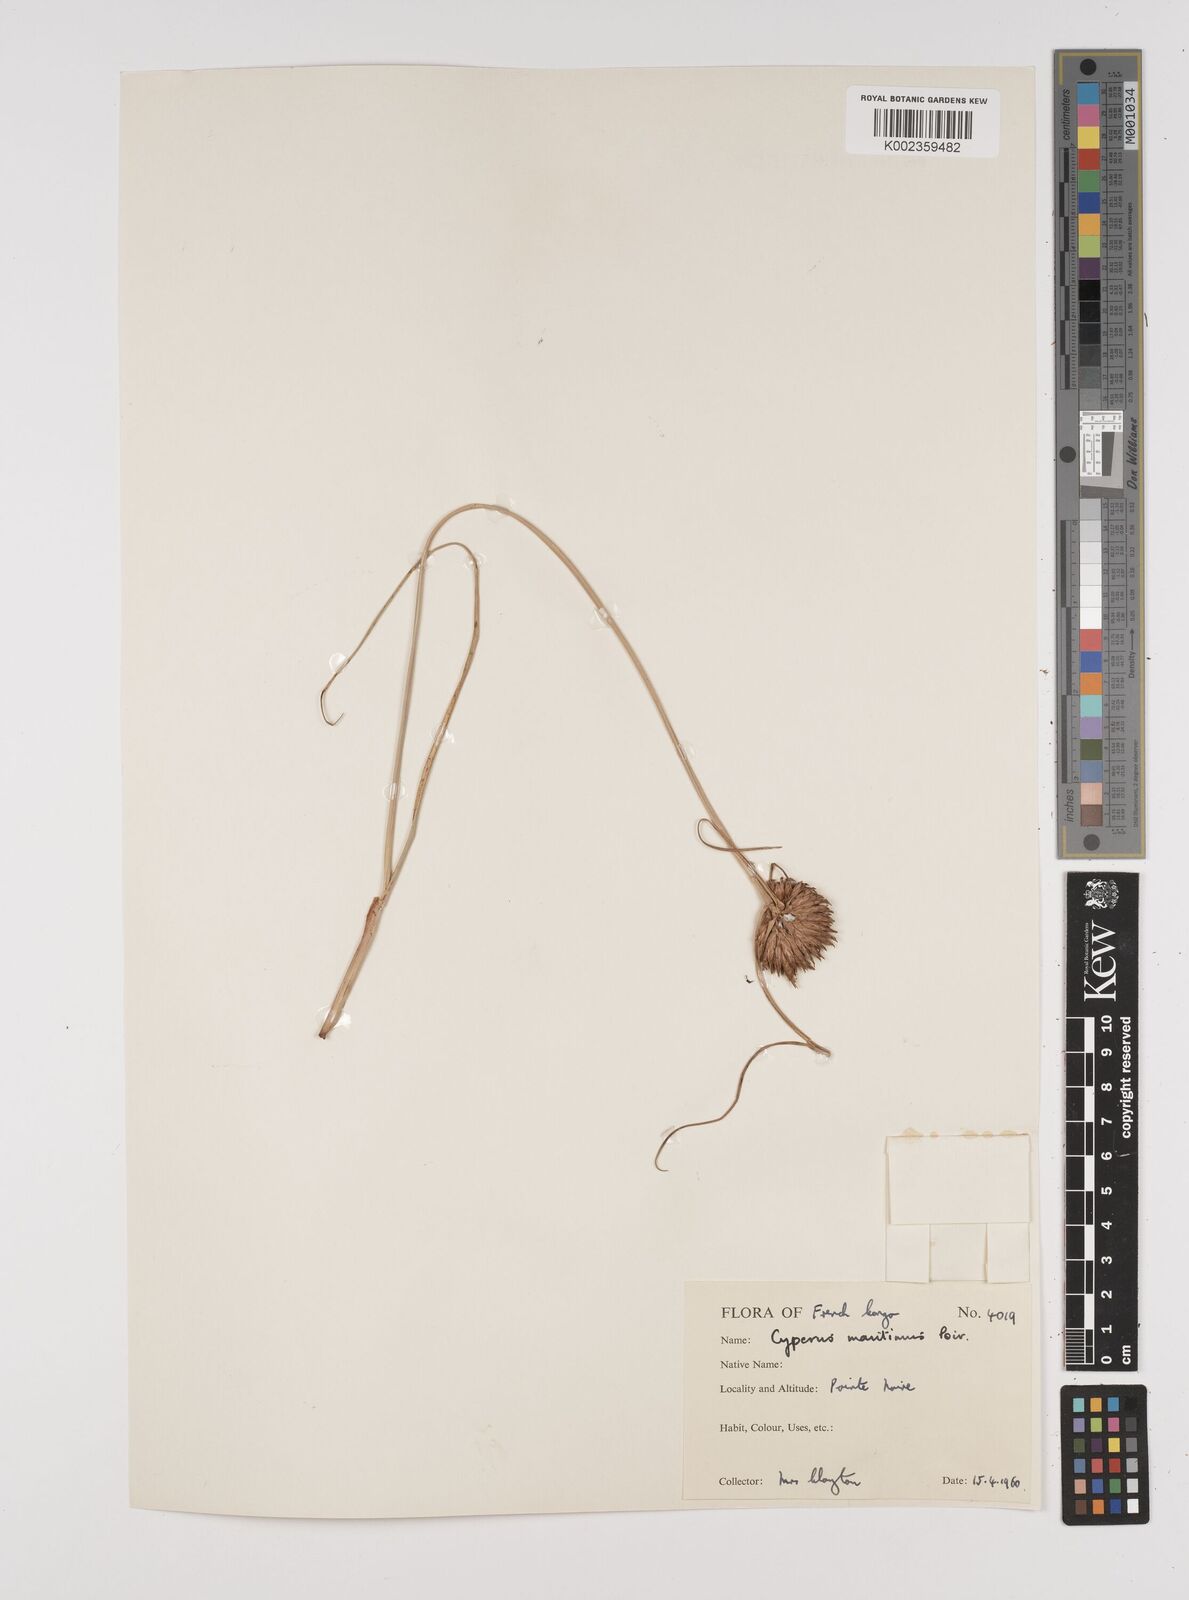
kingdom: Plantae
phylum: Tracheophyta
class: Liliopsida
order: Poales
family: Cyperaceae
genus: Cyperus
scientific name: Cyperus crassipes
